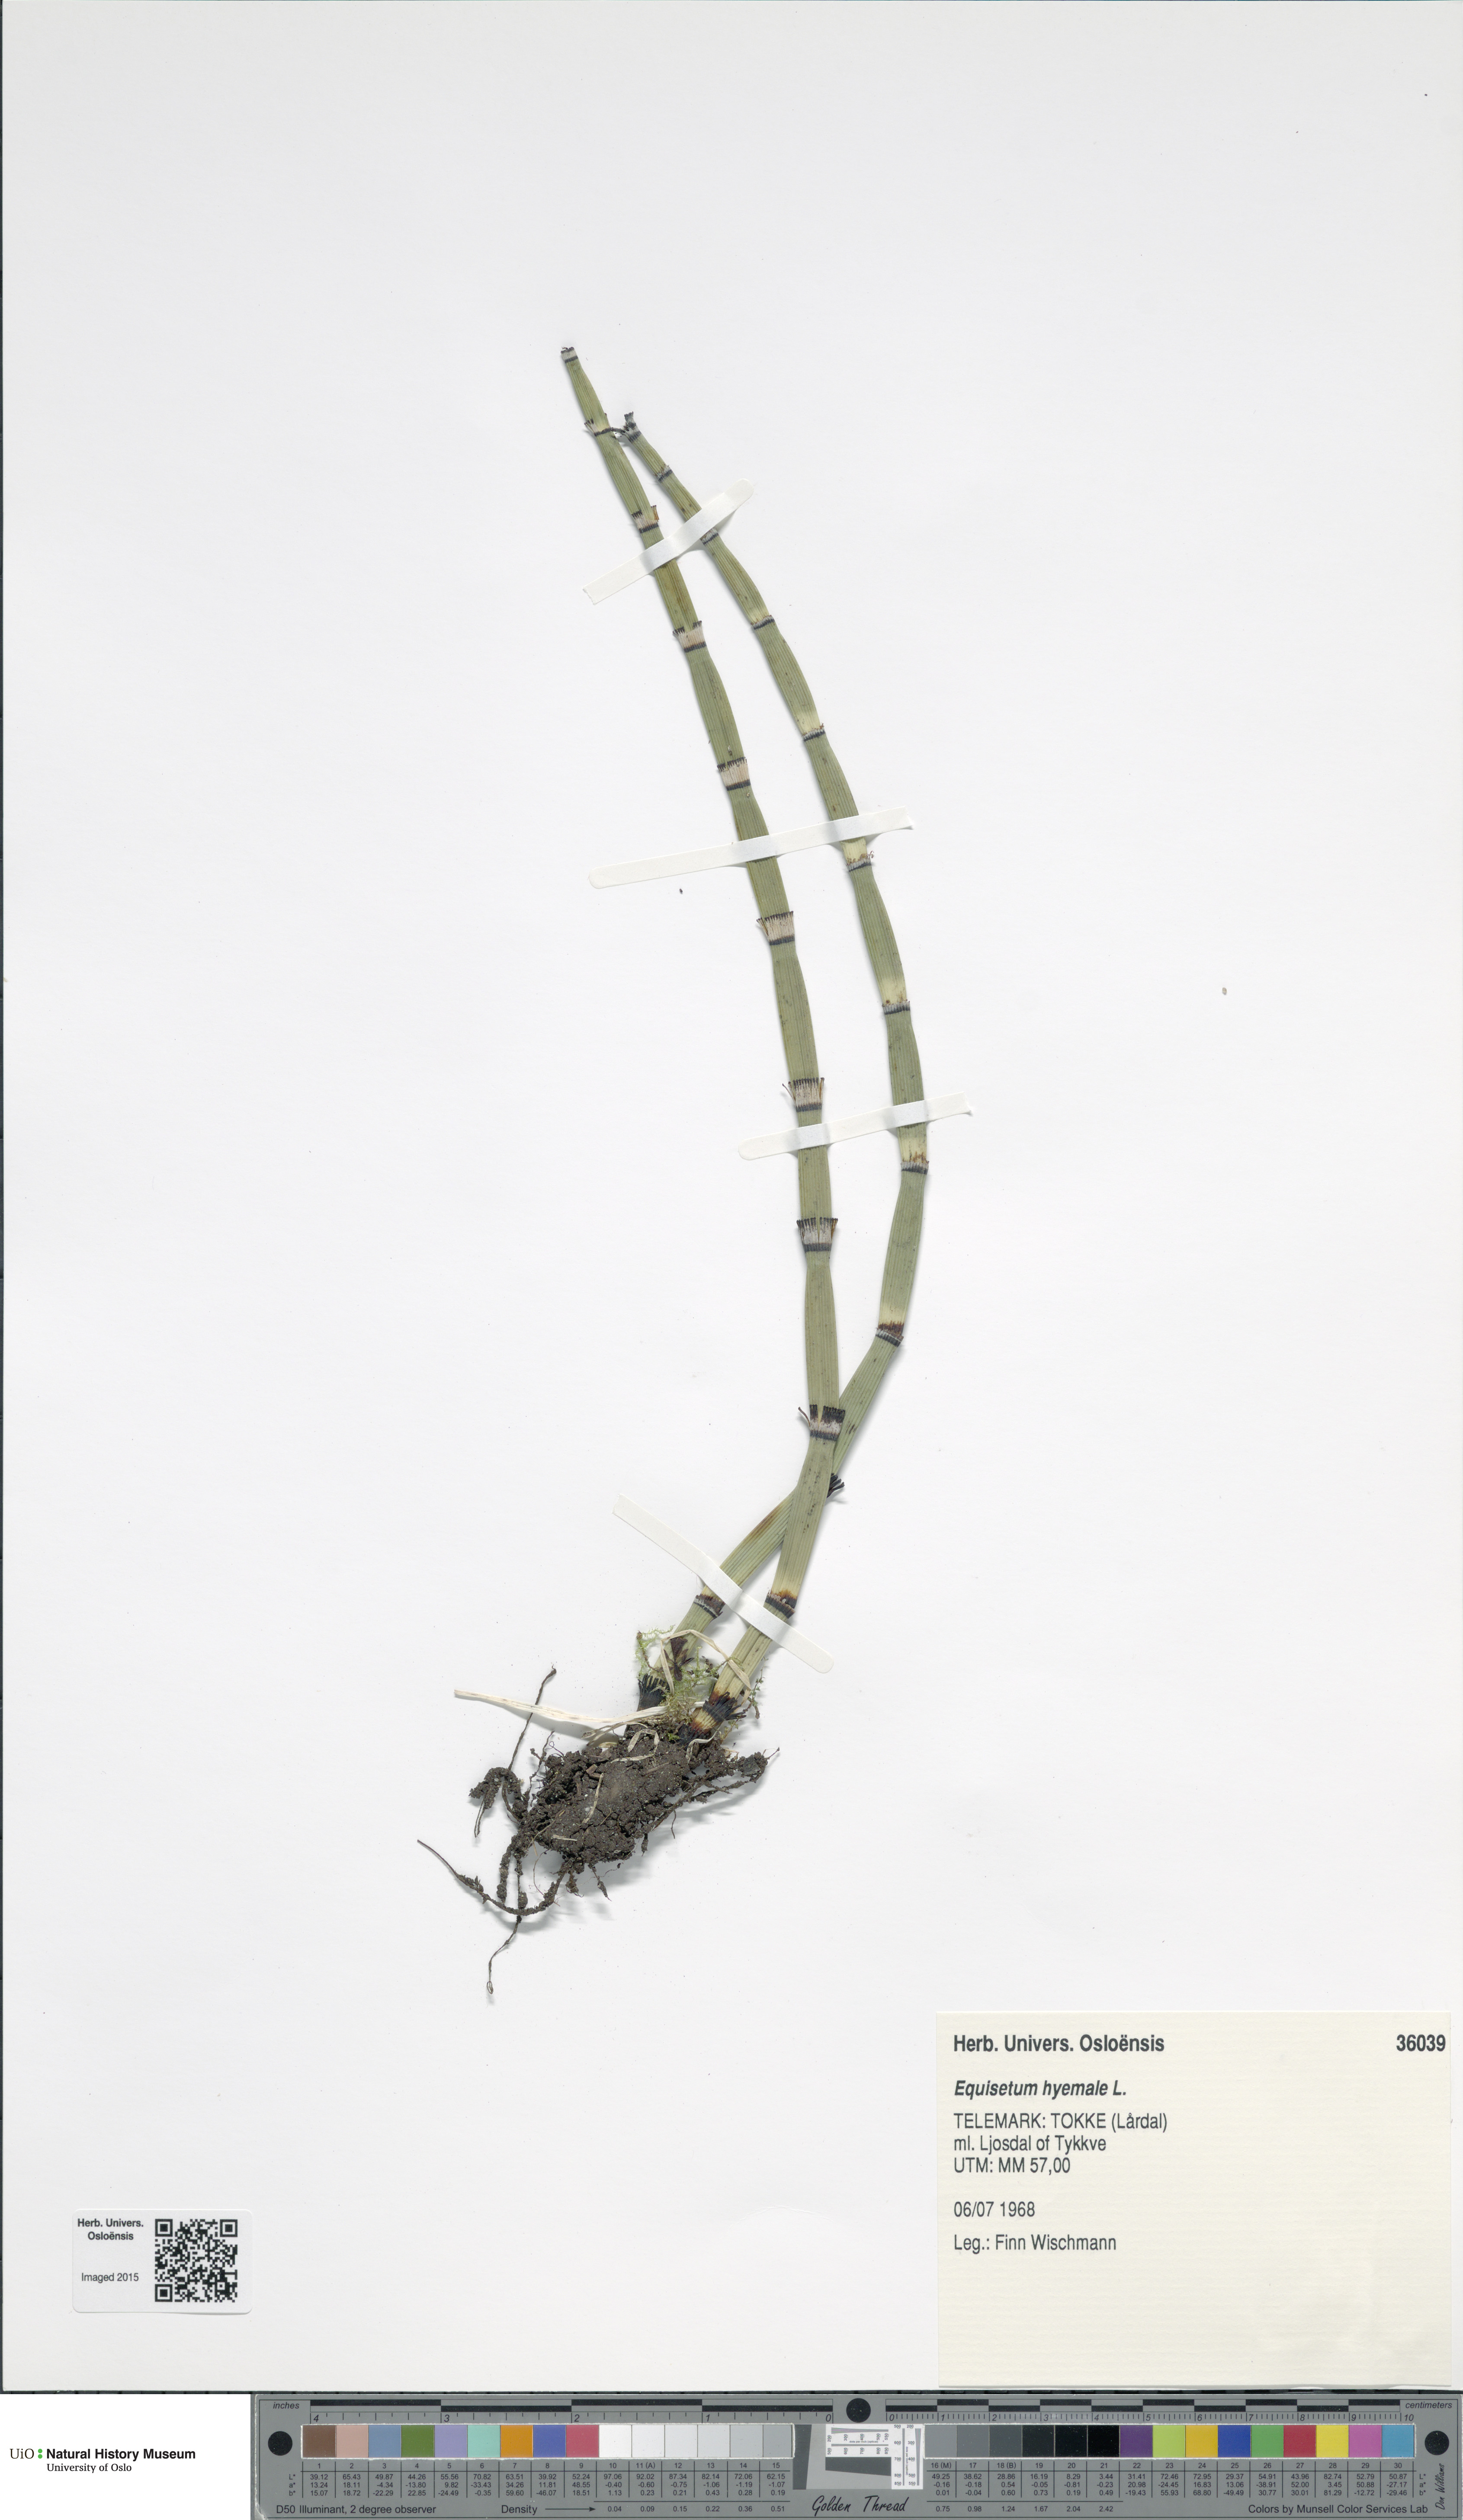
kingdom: Plantae
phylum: Tracheophyta
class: Polypodiopsida
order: Equisetales
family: Equisetaceae
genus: Equisetum
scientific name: Equisetum hyemale
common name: Rough horsetail
